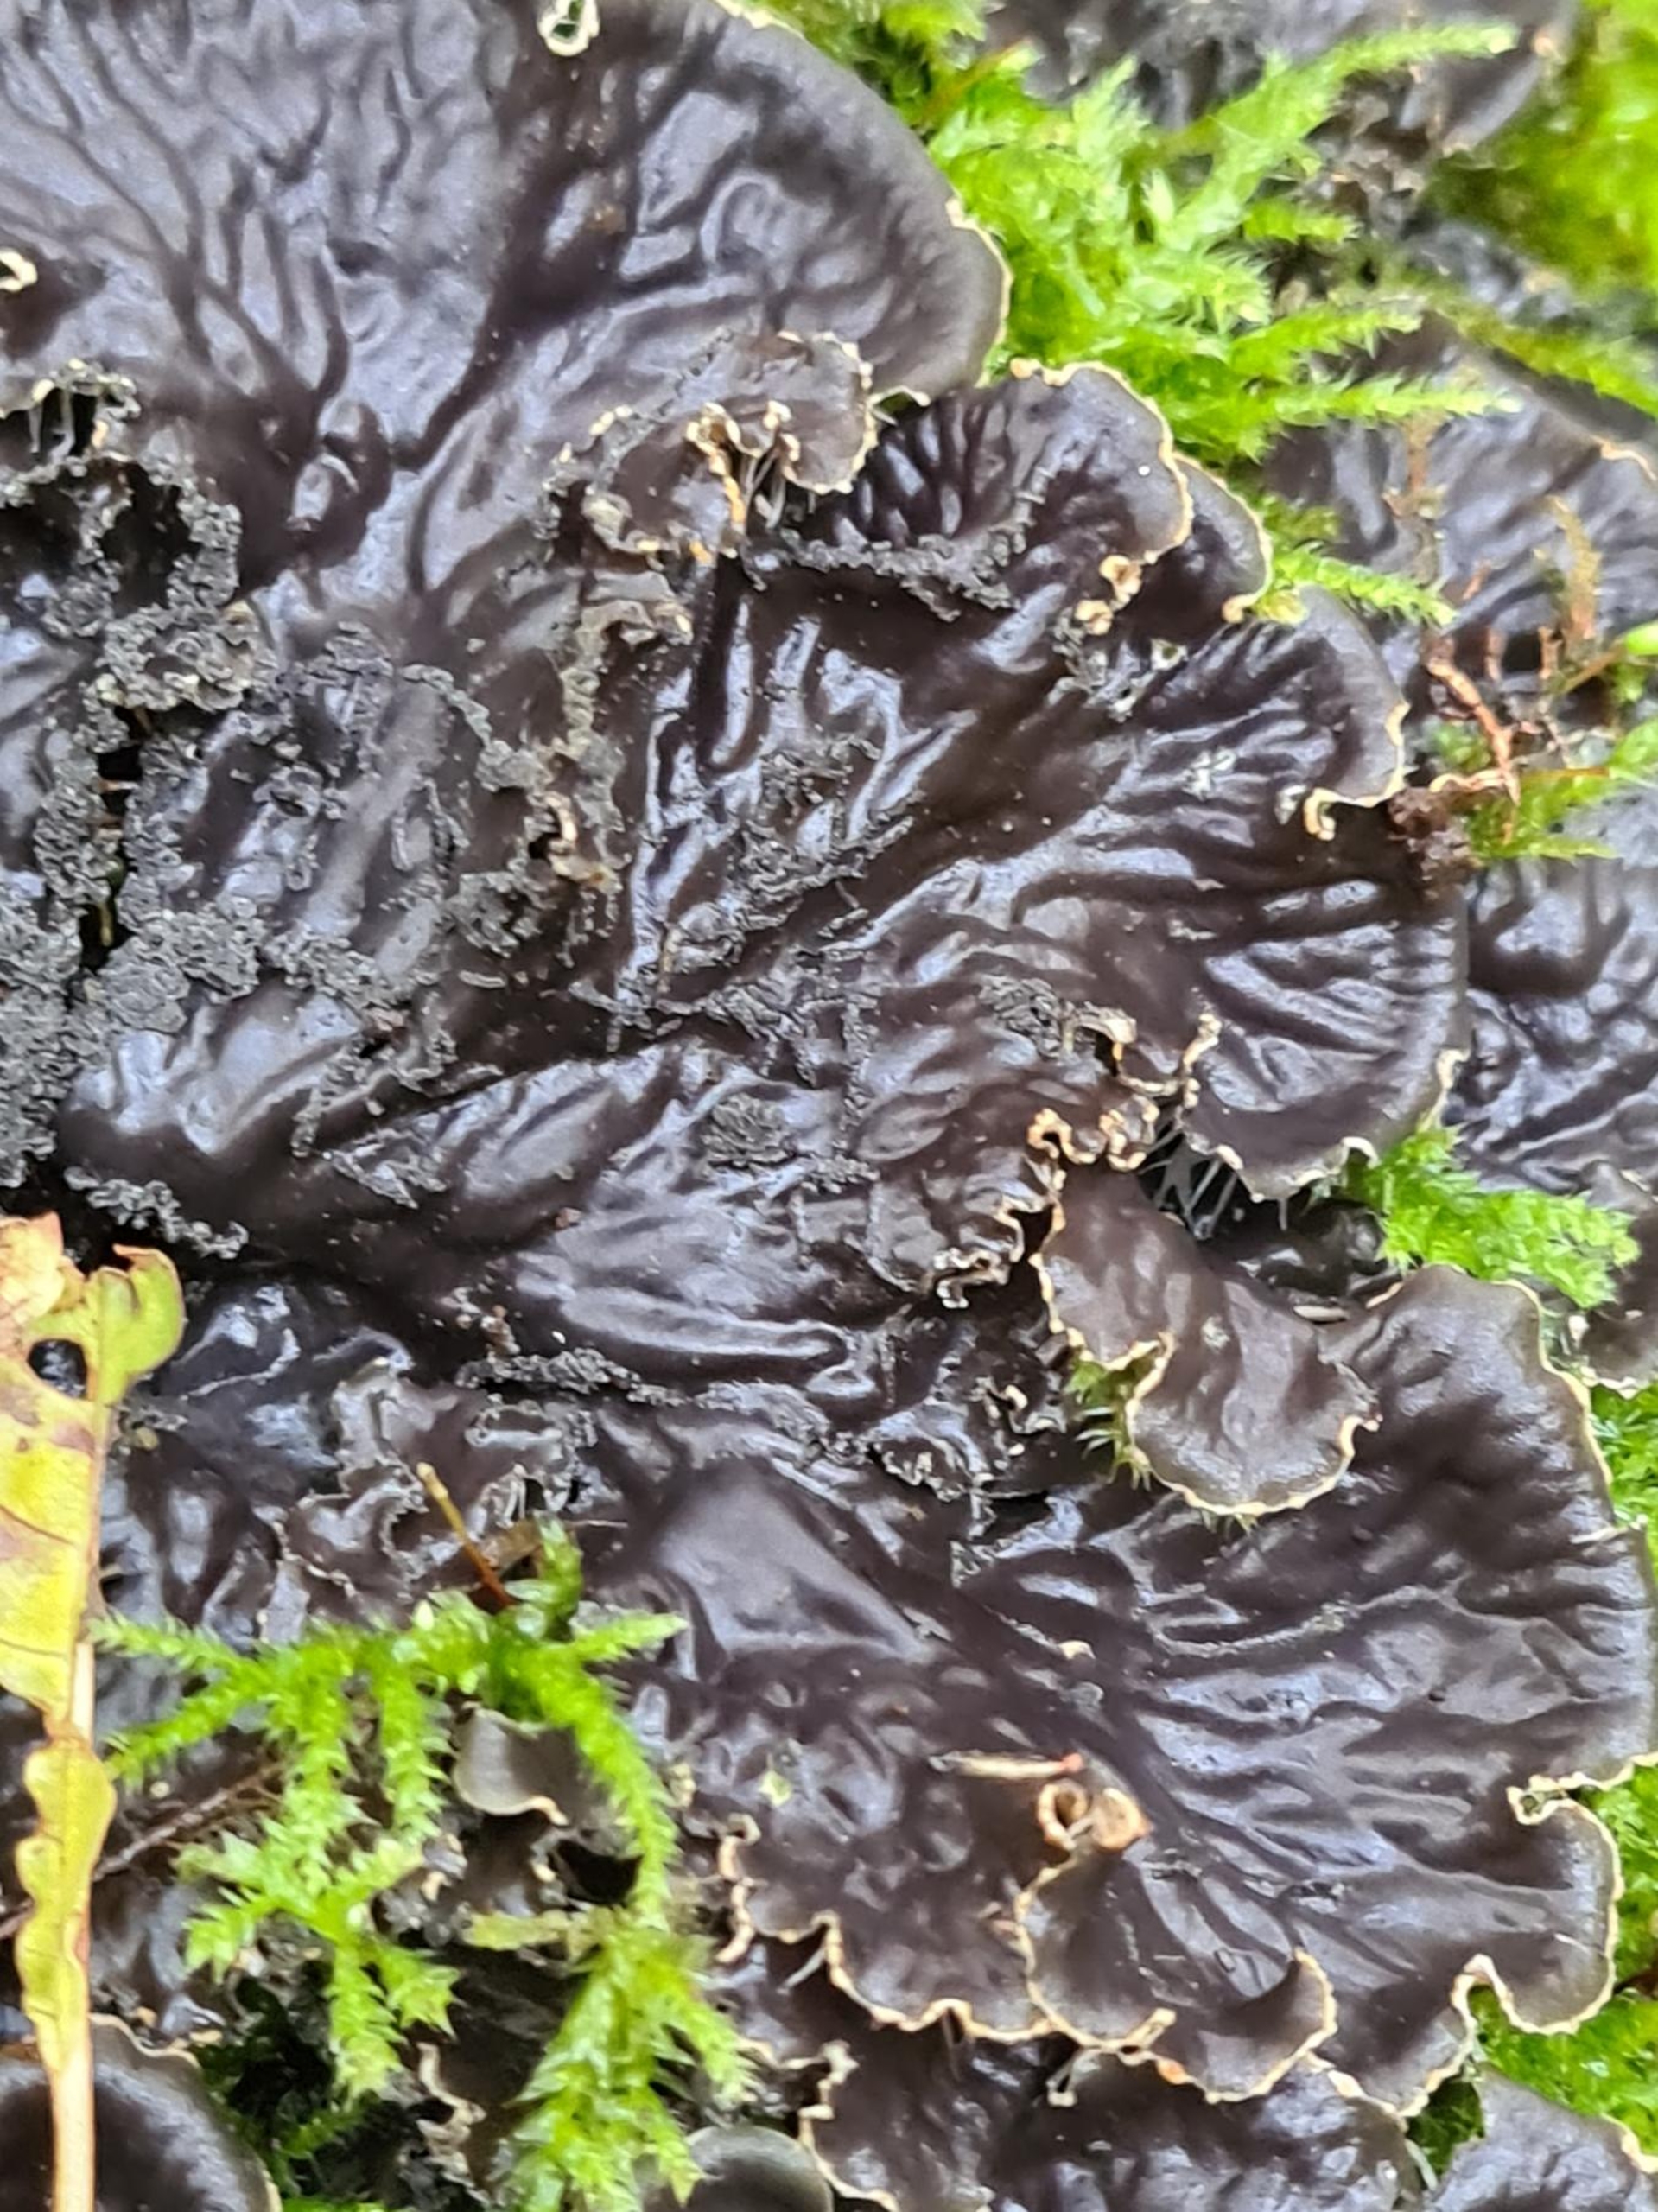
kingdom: Fungi
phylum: Ascomycota
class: Lecanoromycetes
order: Peltigerales
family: Peltigeraceae
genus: Peltigera
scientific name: Peltigera praetextata
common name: Kruset skjoldlav
